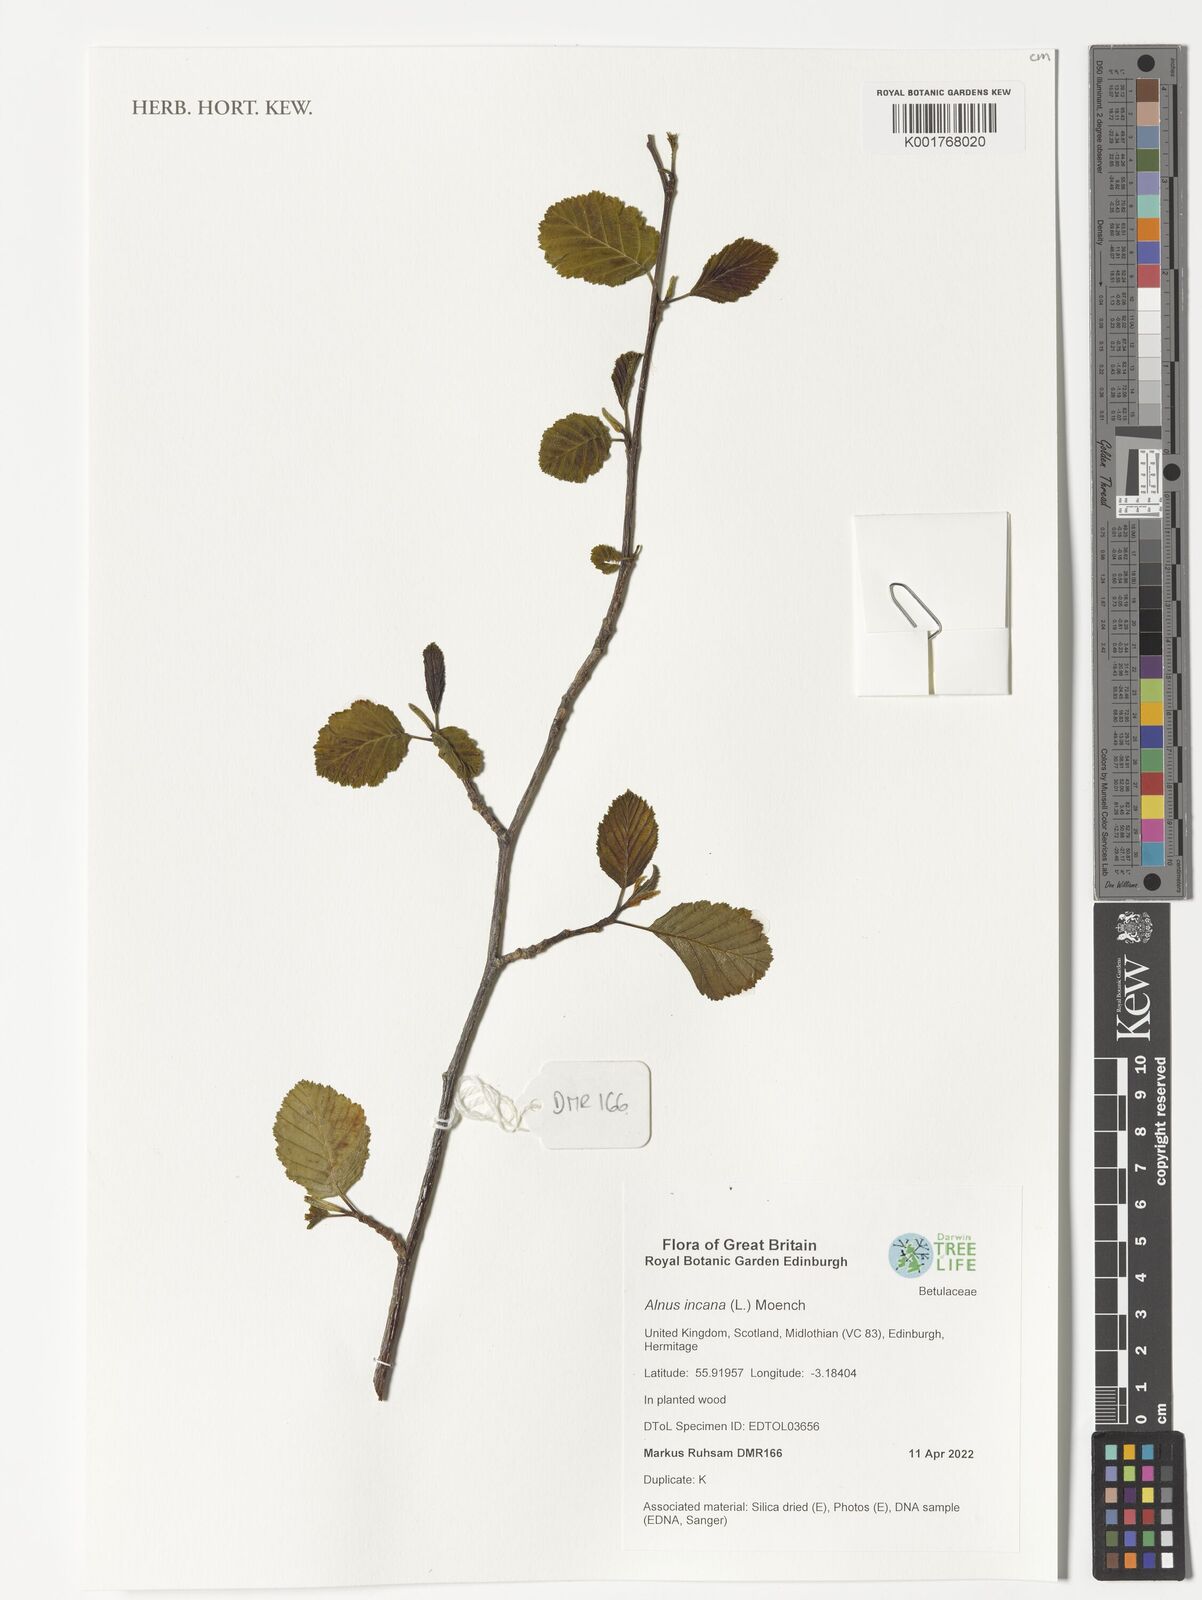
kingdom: Plantae
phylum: Tracheophyta
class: Magnoliopsida
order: Fagales
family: Betulaceae
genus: Alnus
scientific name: Alnus incana
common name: Grey alder
